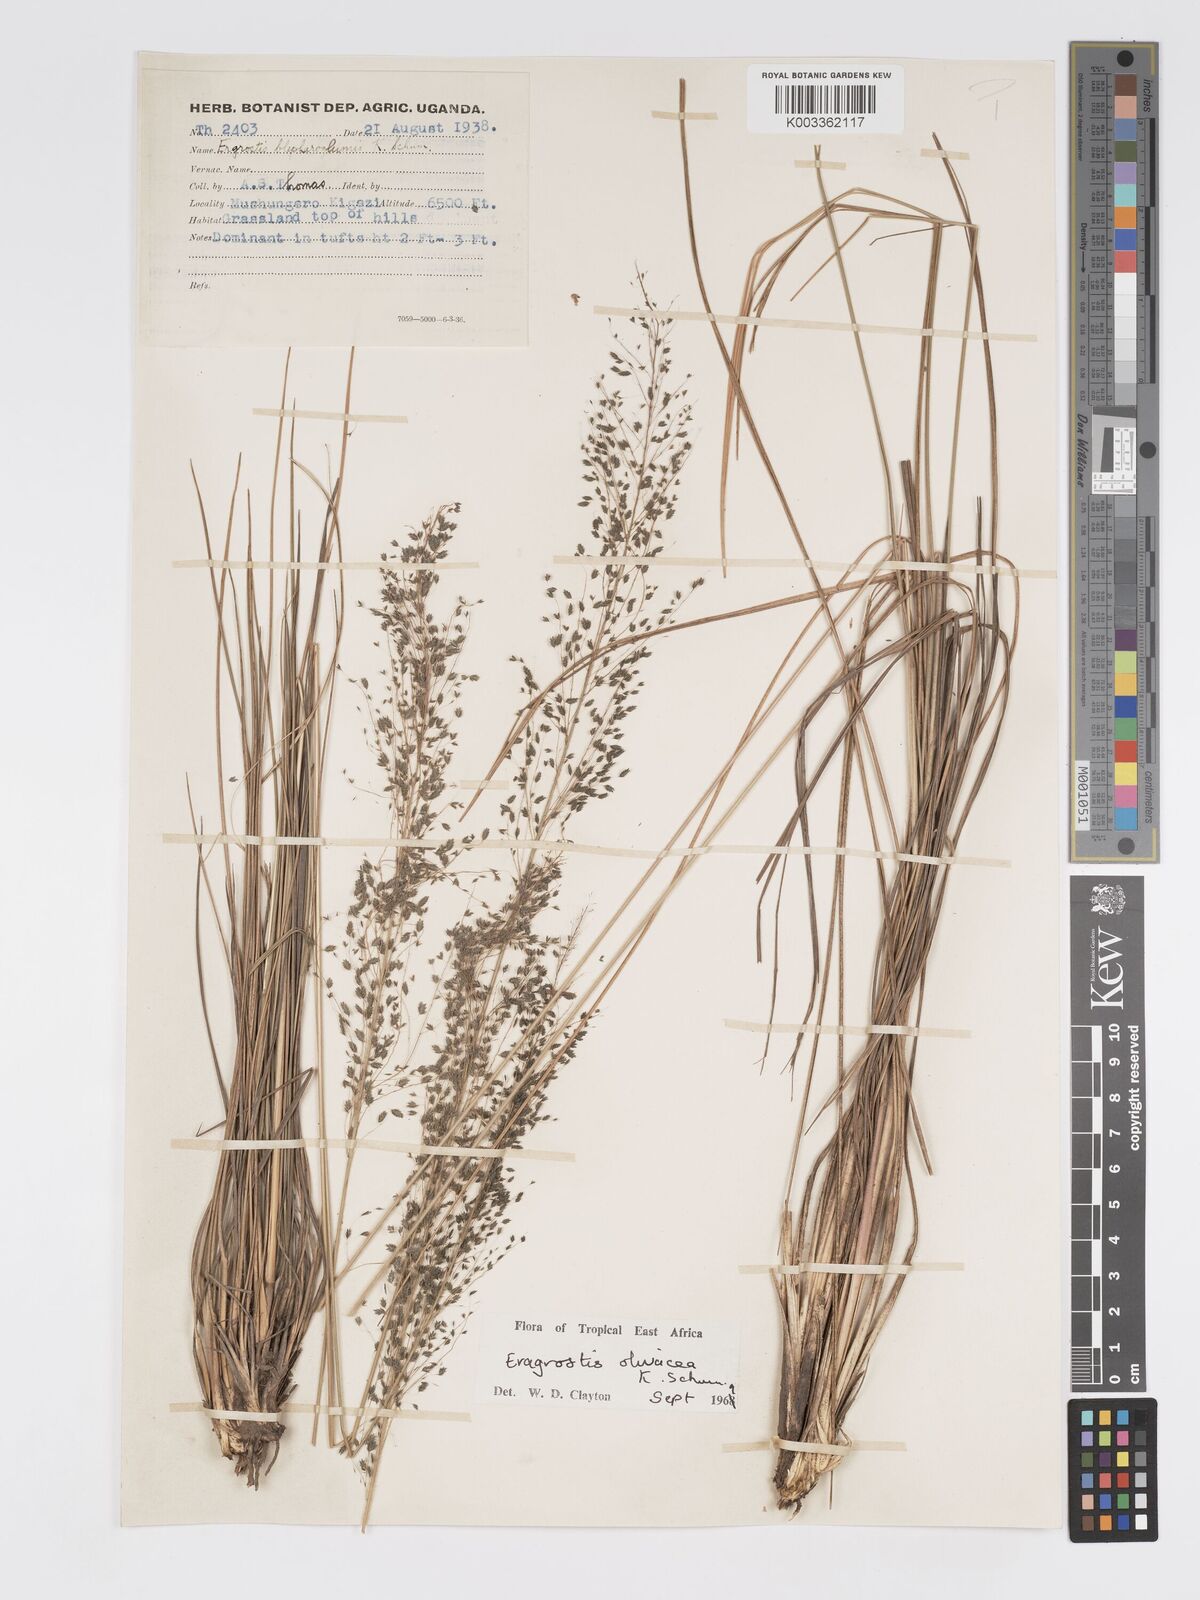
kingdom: Plantae
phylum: Tracheophyta
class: Liliopsida
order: Poales
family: Poaceae
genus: Eragrostis
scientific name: Eragrostis olivacea
